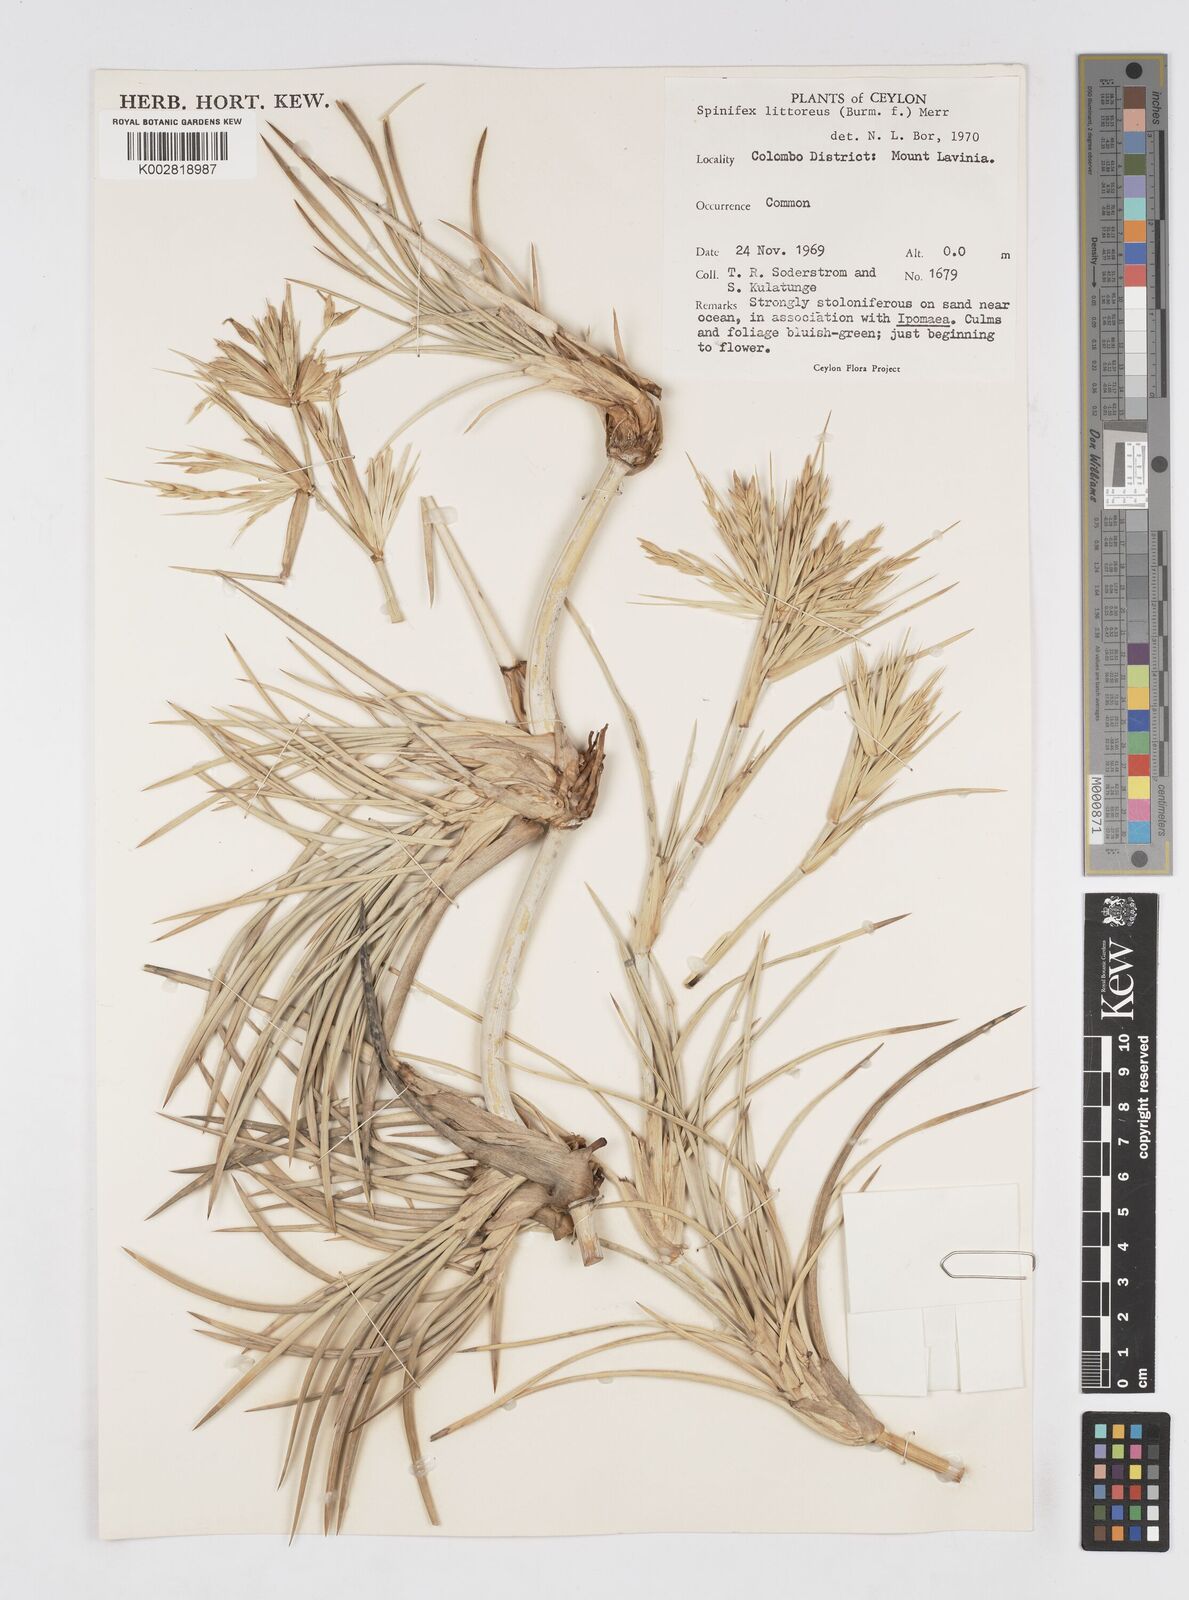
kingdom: Plantae
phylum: Tracheophyta
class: Liliopsida
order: Poales
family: Poaceae
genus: Spinifex
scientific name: Spinifex littoreus
